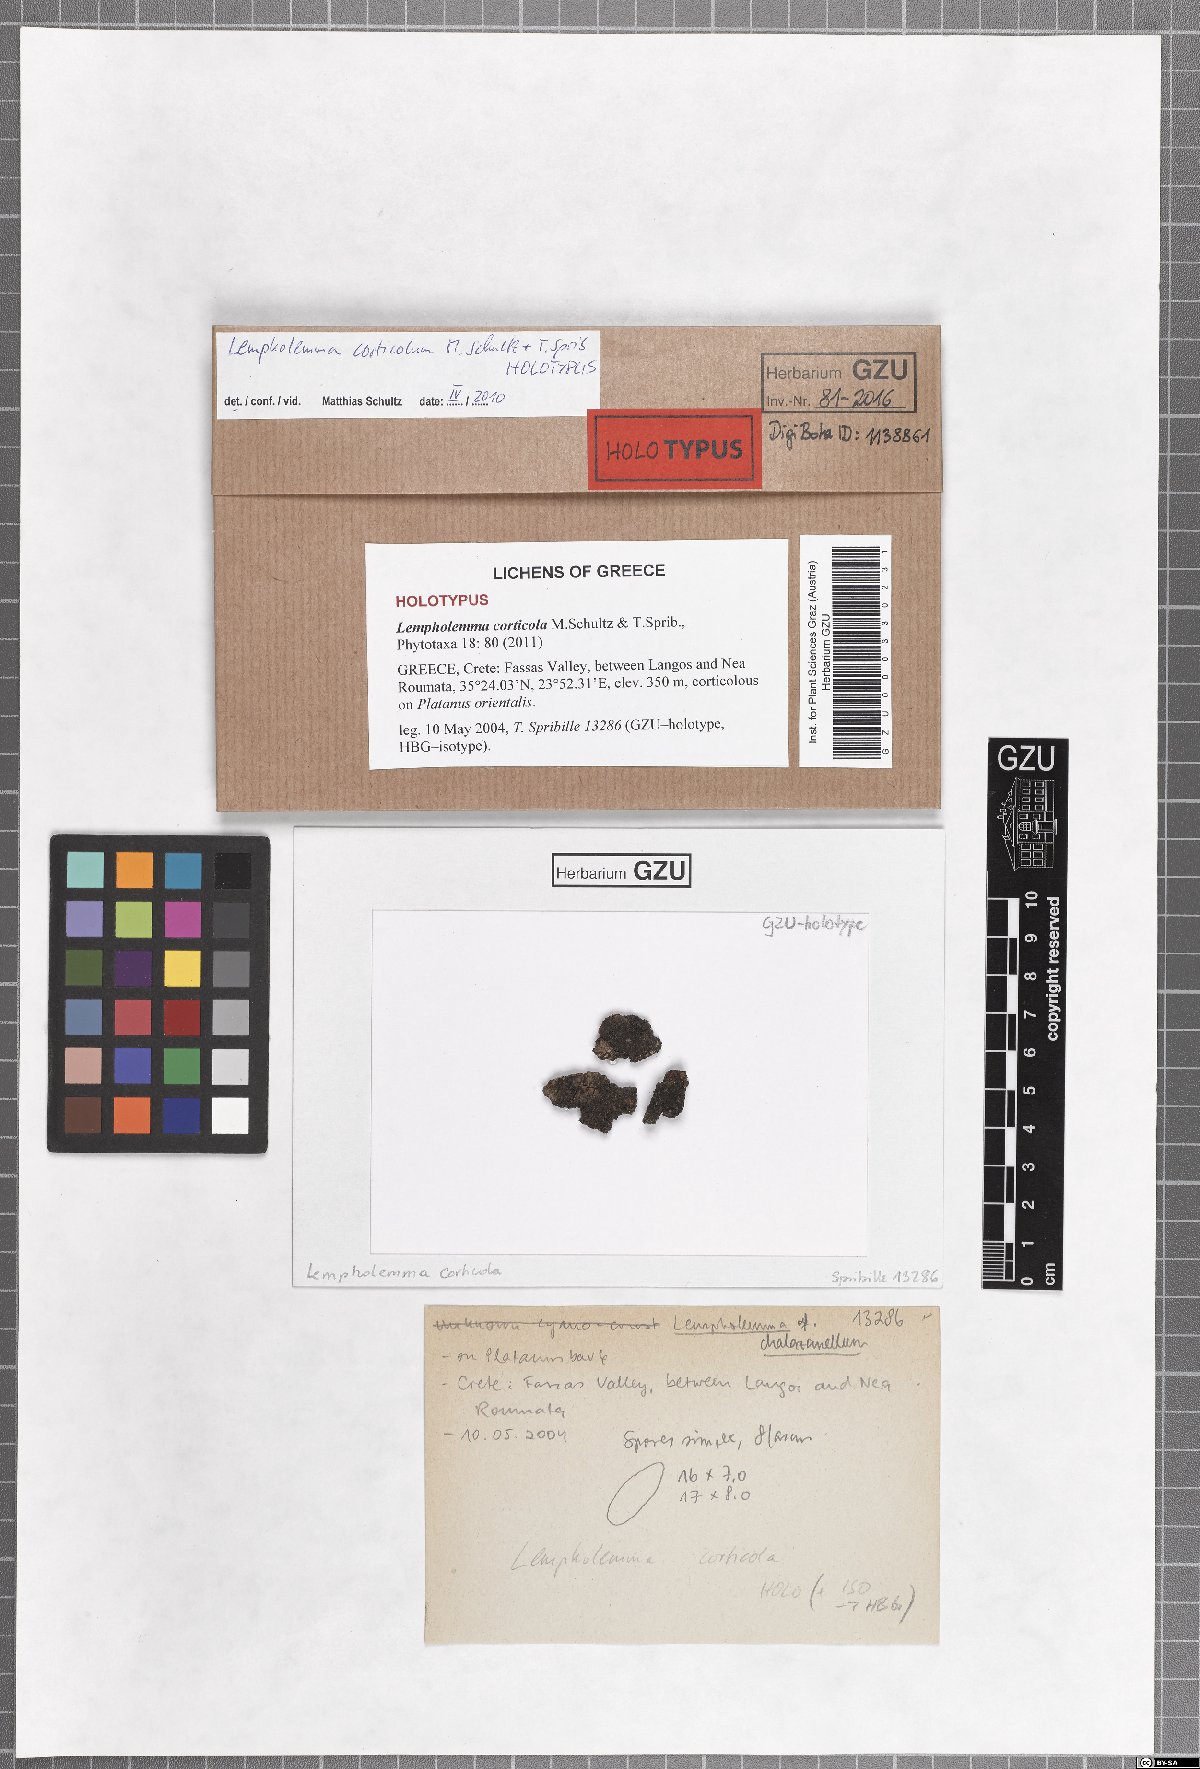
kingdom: Fungi
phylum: Ascomycota
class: Lichinomycetes
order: Lichinales
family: Lichinaceae
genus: Lempholemma
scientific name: Lempholemma corticola
